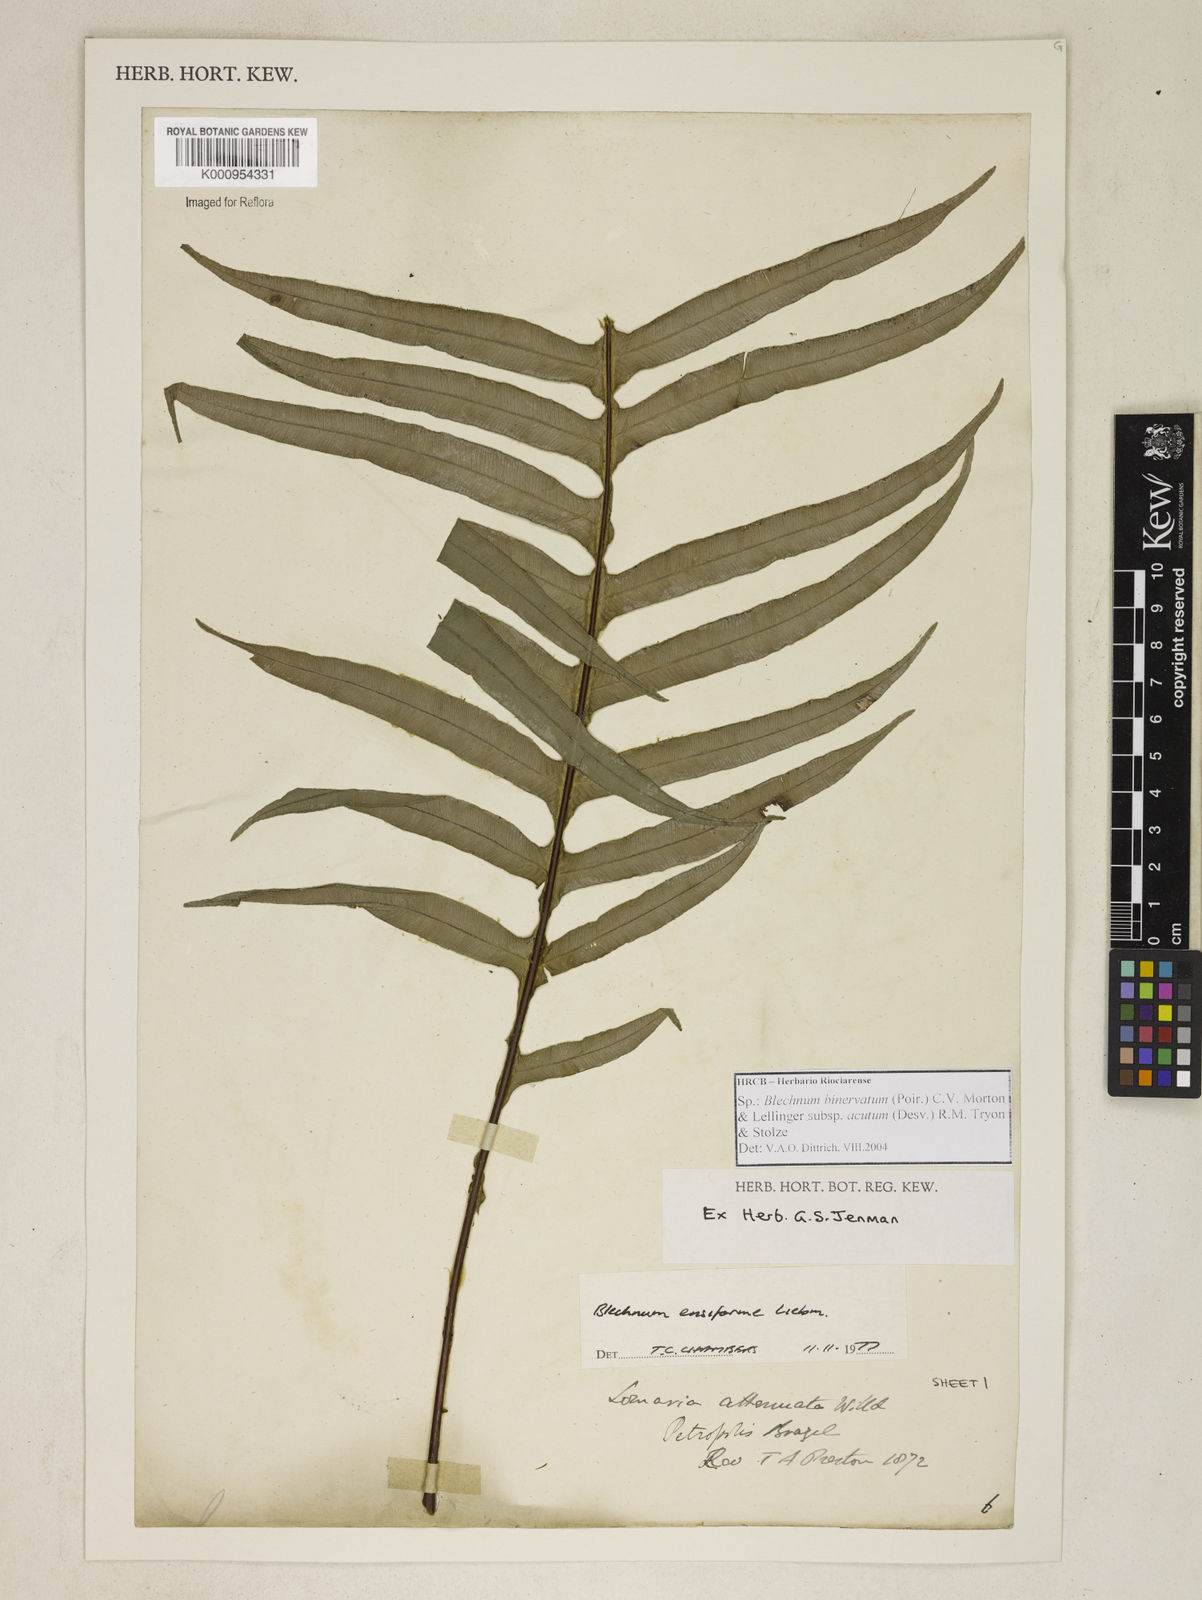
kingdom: Plantae
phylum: Tracheophyta
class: Polypodiopsida
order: Polypodiales
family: Blechnaceae
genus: Lomaridium
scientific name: Lomaridium ensiforme
